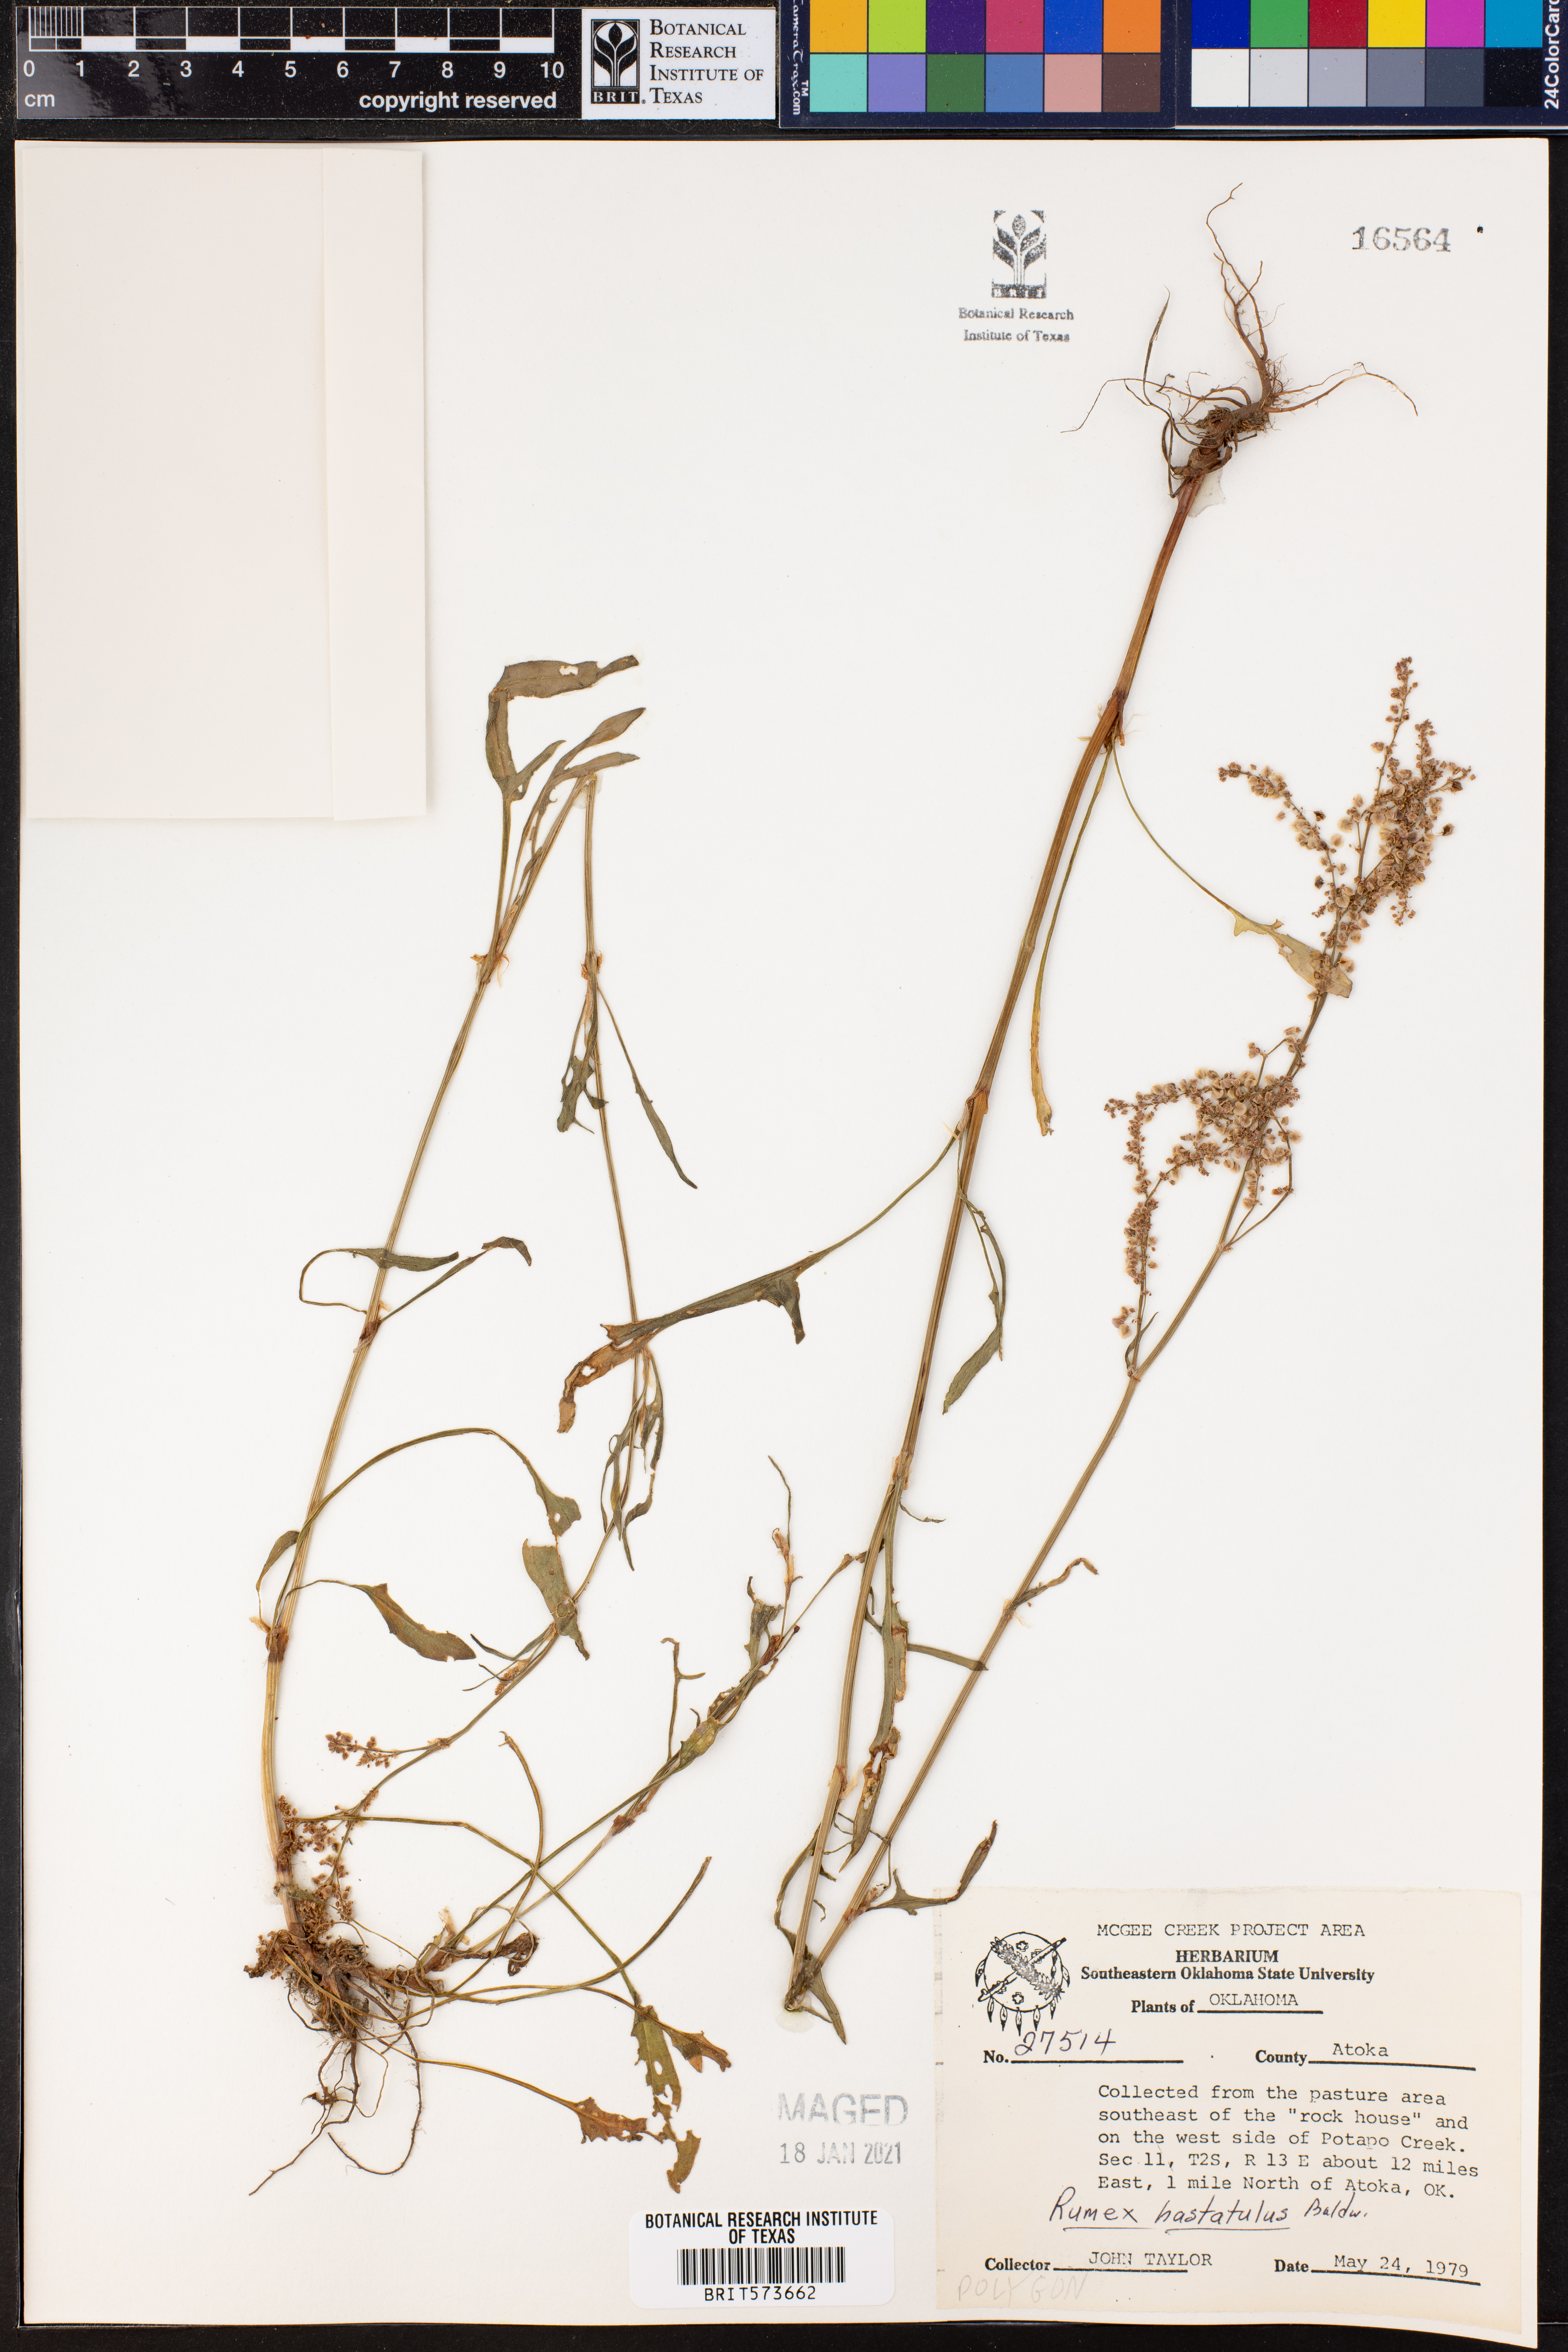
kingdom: Plantae
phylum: Tracheophyta
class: Magnoliopsida
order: Caryophyllales
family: Polygonaceae
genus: Rumex
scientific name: Rumex hastatulus
